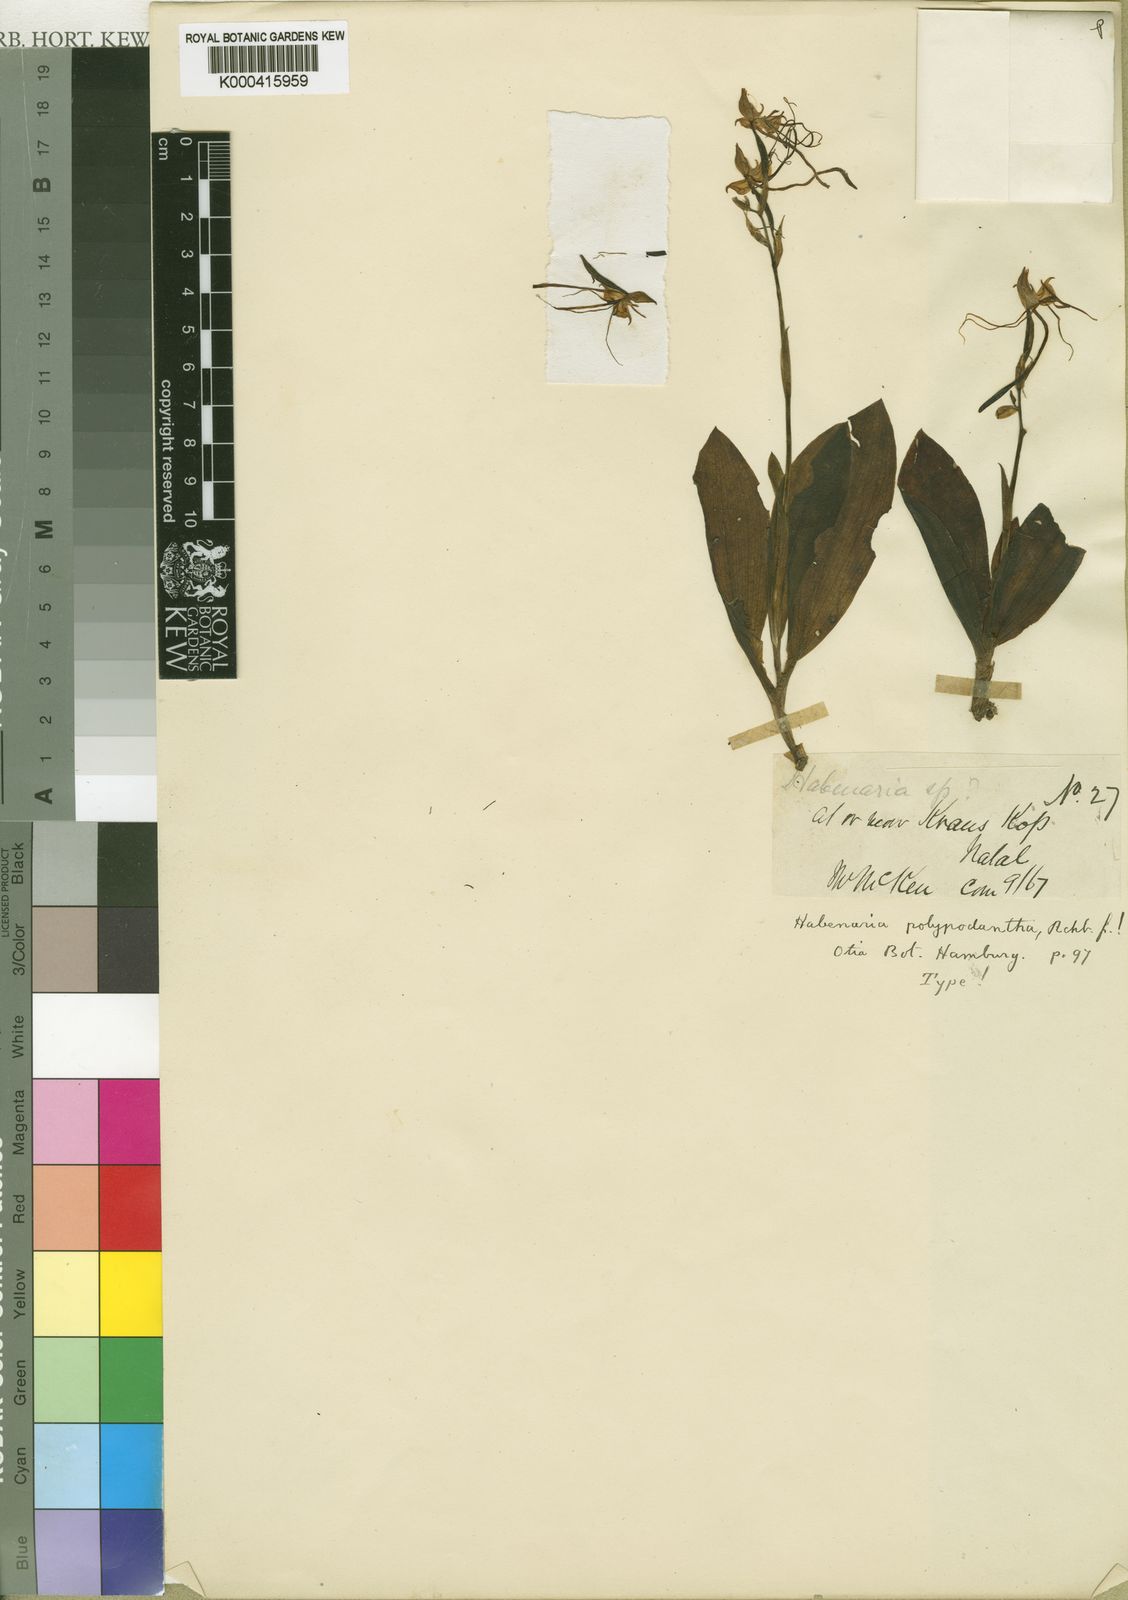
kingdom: Plantae
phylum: Tracheophyta
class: Liliopsida
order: Asparagales
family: Orchidaceae
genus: Bonatea
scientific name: Bonatea polypodantha
